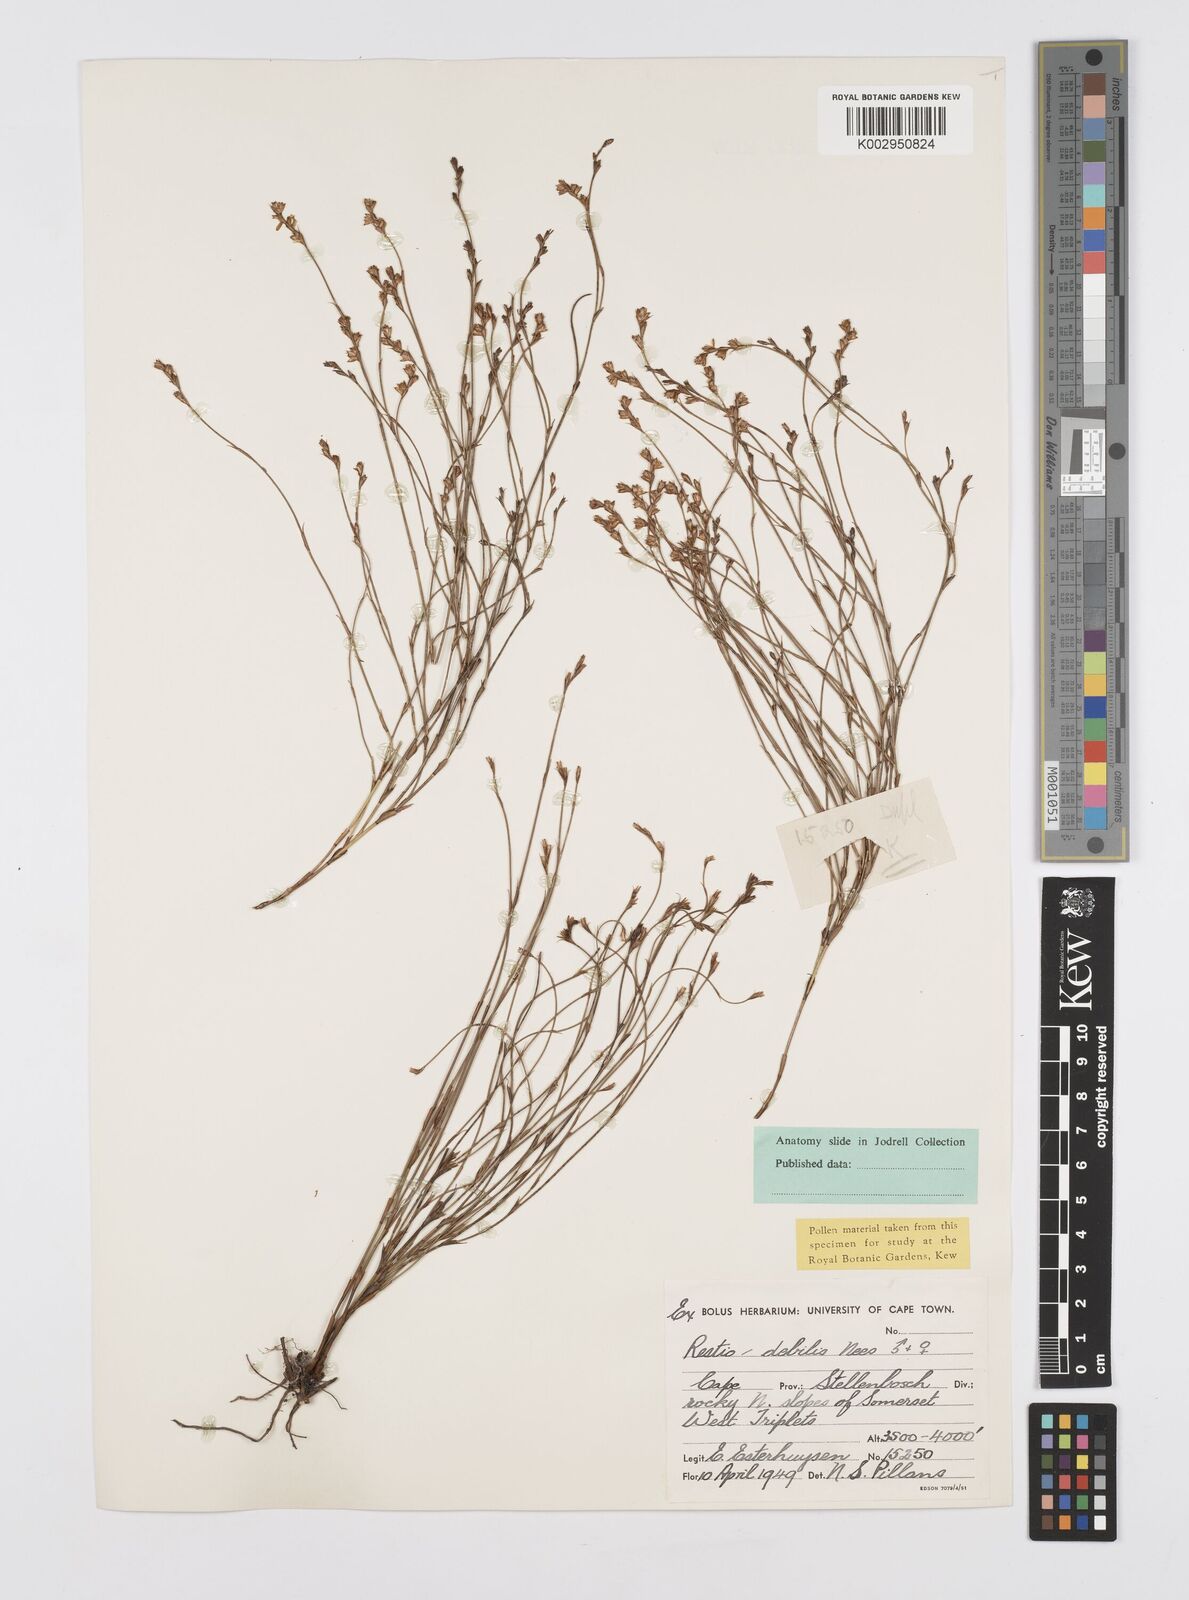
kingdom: Plantae
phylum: Tracheophyta
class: Liliopsida
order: Poales
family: Restionaceae
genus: Restio
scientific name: Restio debilis
